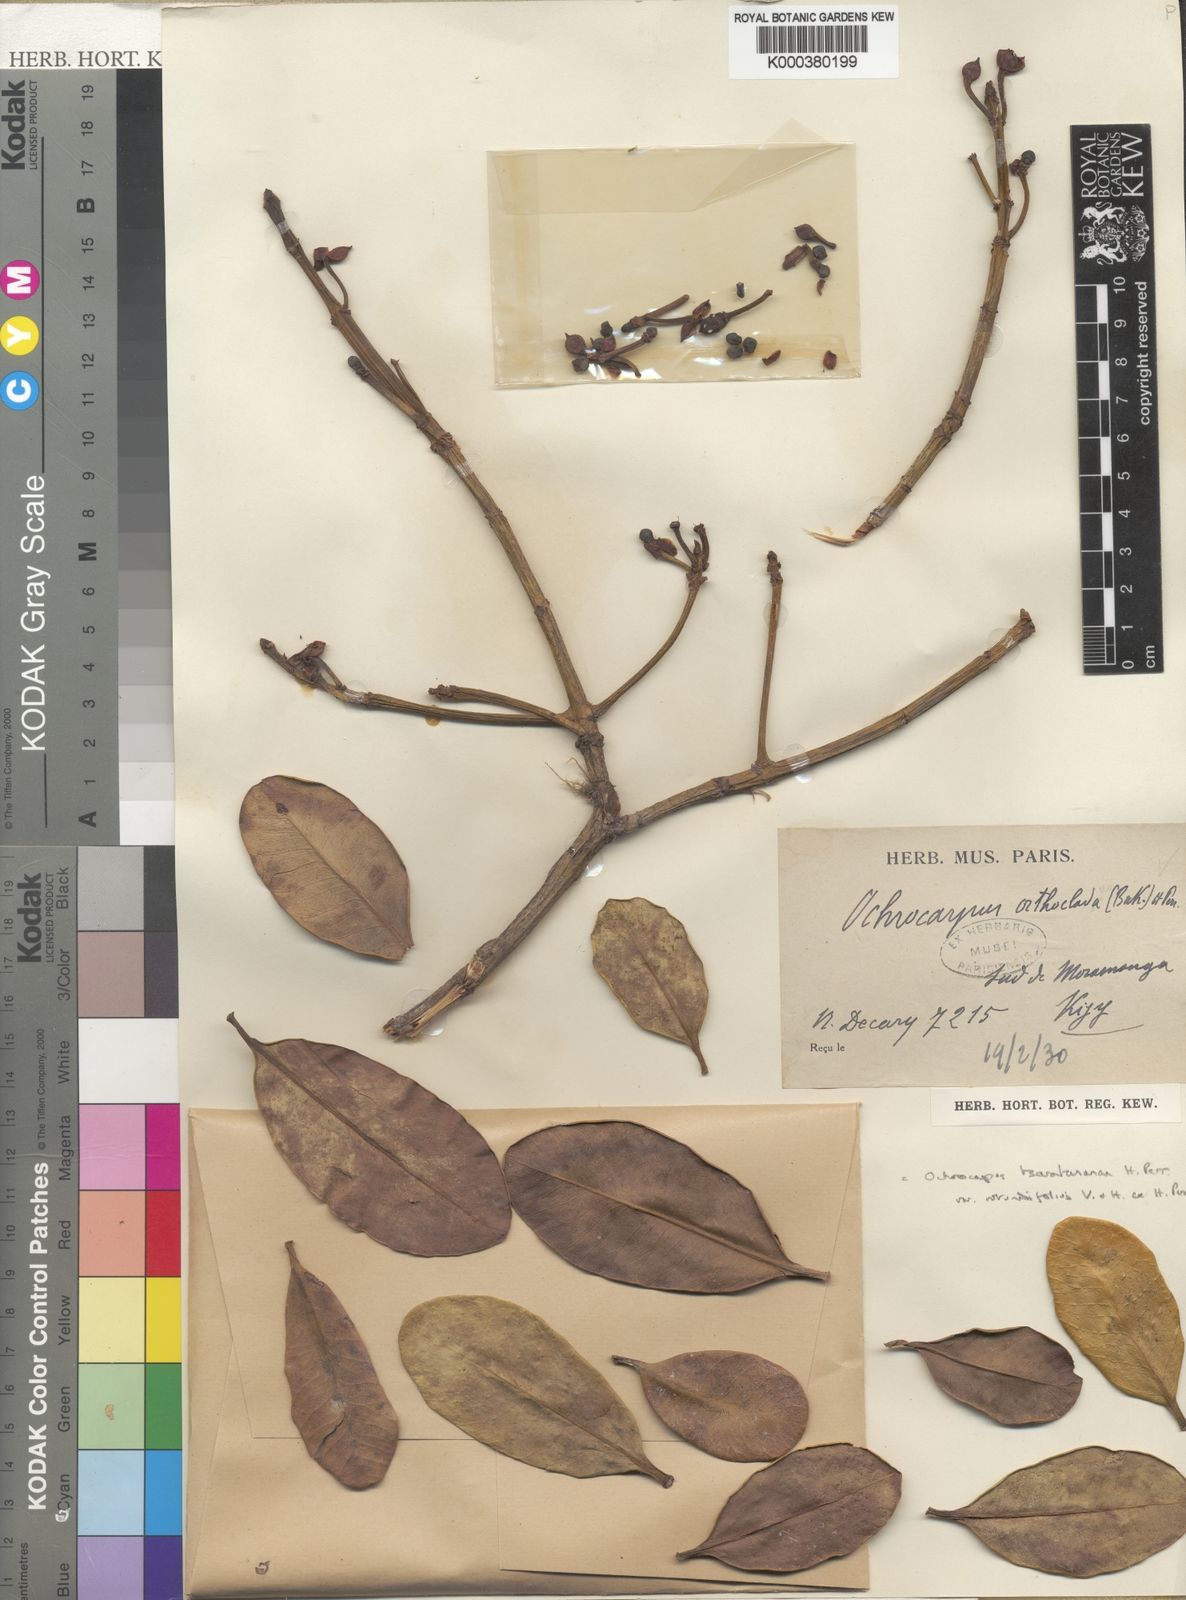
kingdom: Plantae
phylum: Tracheophyta
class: Magnoliopsida
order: Malpighiales
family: Clusiaceae
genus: Garcinia
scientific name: Garcinia tsaratananae
